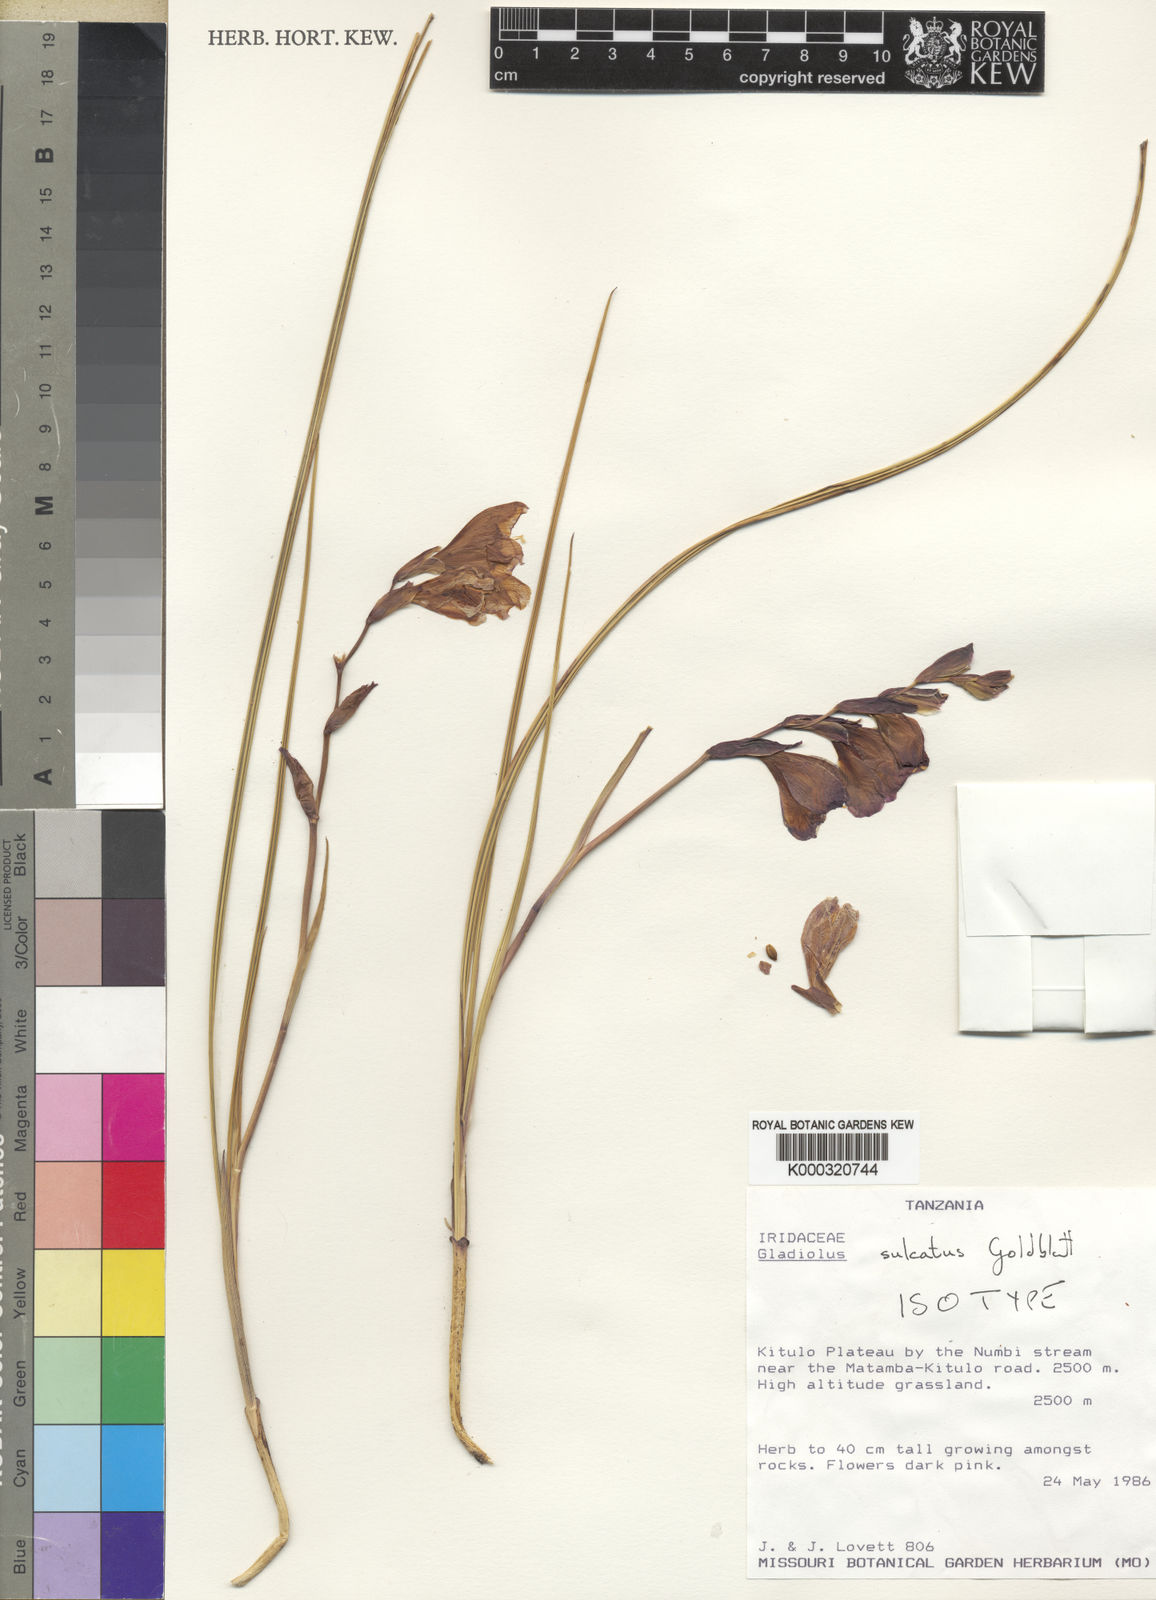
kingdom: Plantae
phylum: Tracheophyta
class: Liliopsida
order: Asparagales
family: Iridaceae
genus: Gladiolus
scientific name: Gladiolus sulculatus
